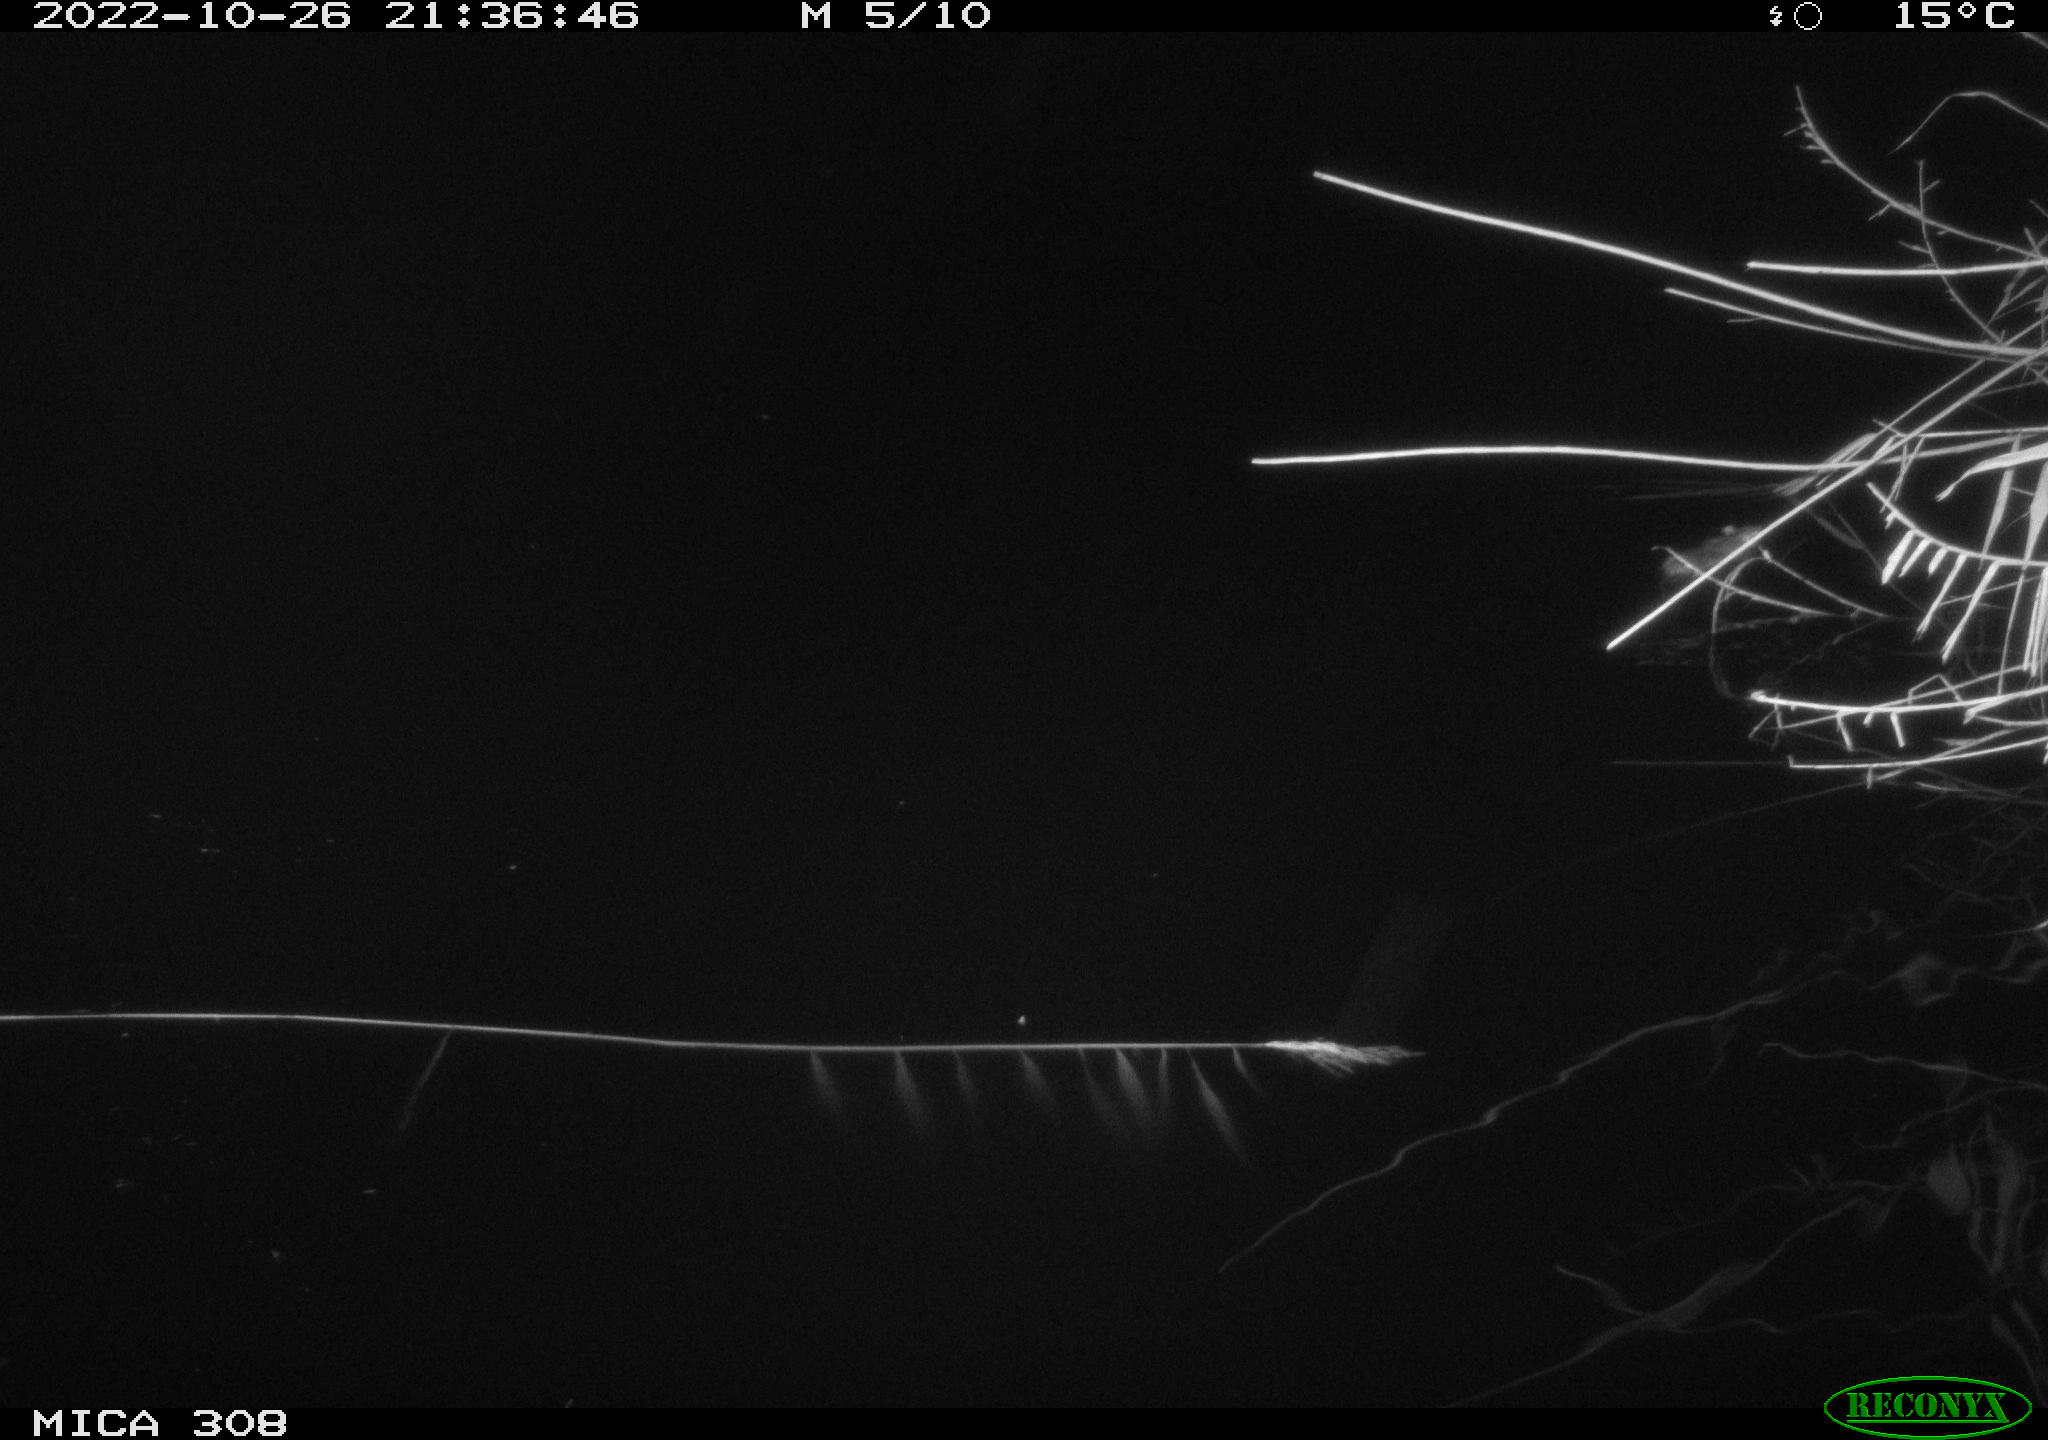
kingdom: Animalia
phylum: Chordata
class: Mammalia
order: Rodentia
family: Muridae
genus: Rattus
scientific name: Rattus norvegicus
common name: Brown rat
